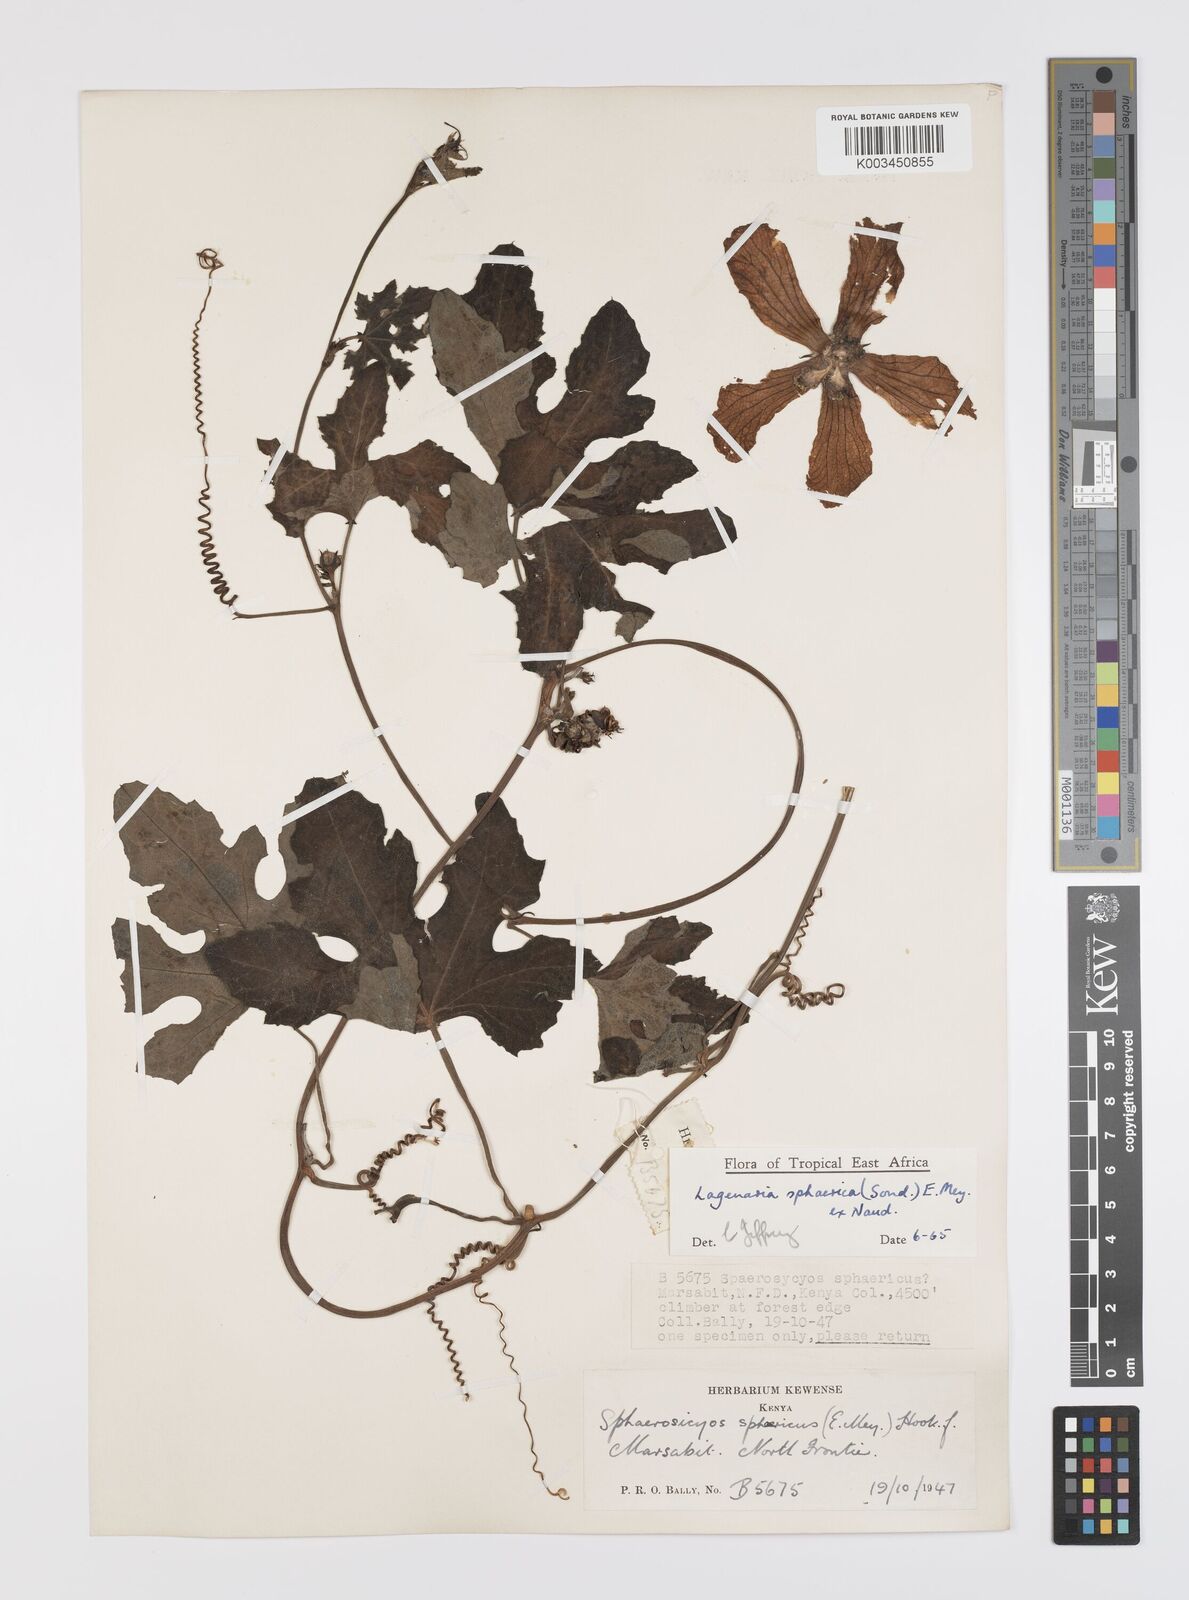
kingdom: Plantae
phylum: Tracheophyta
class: Magnoliopsida
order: Cucurbitales
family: Cucurbitaceae
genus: Lagenaria
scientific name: Lagenaria sphaerica
